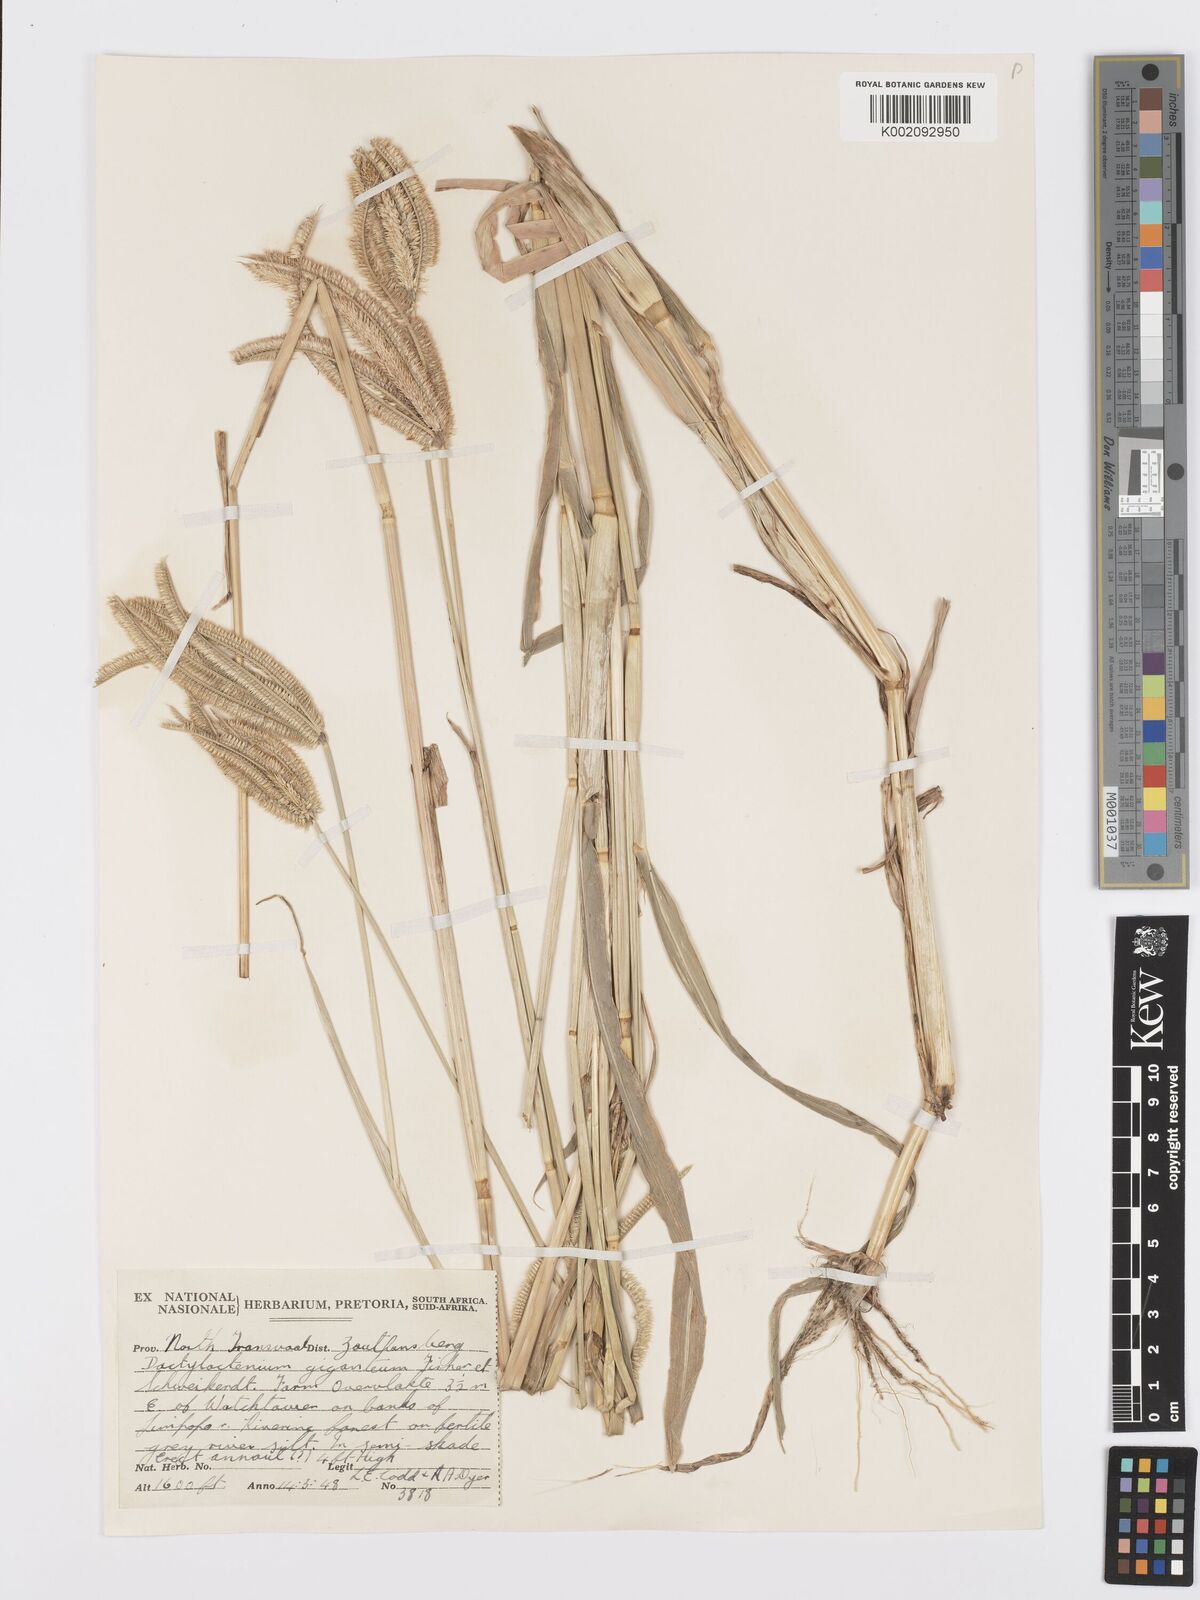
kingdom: Plantae
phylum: Tracheophyta
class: Liliopsida
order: Poales
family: Poaceae
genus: Dactyloctenium
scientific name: Dactyloctenium giganteum
